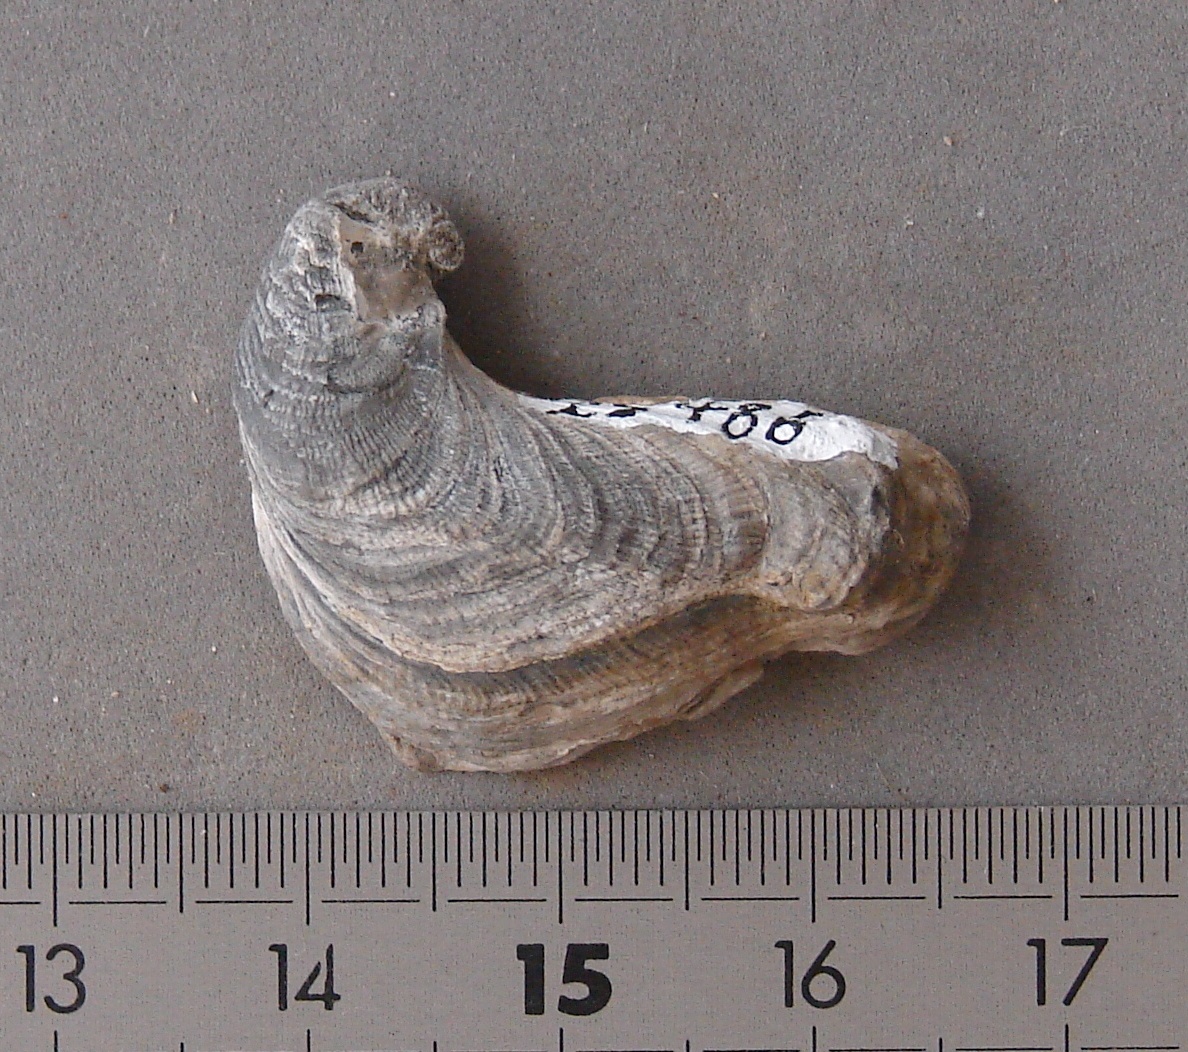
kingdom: Animalia
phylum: Mollusca
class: Bivalvia
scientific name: Bivalvia
